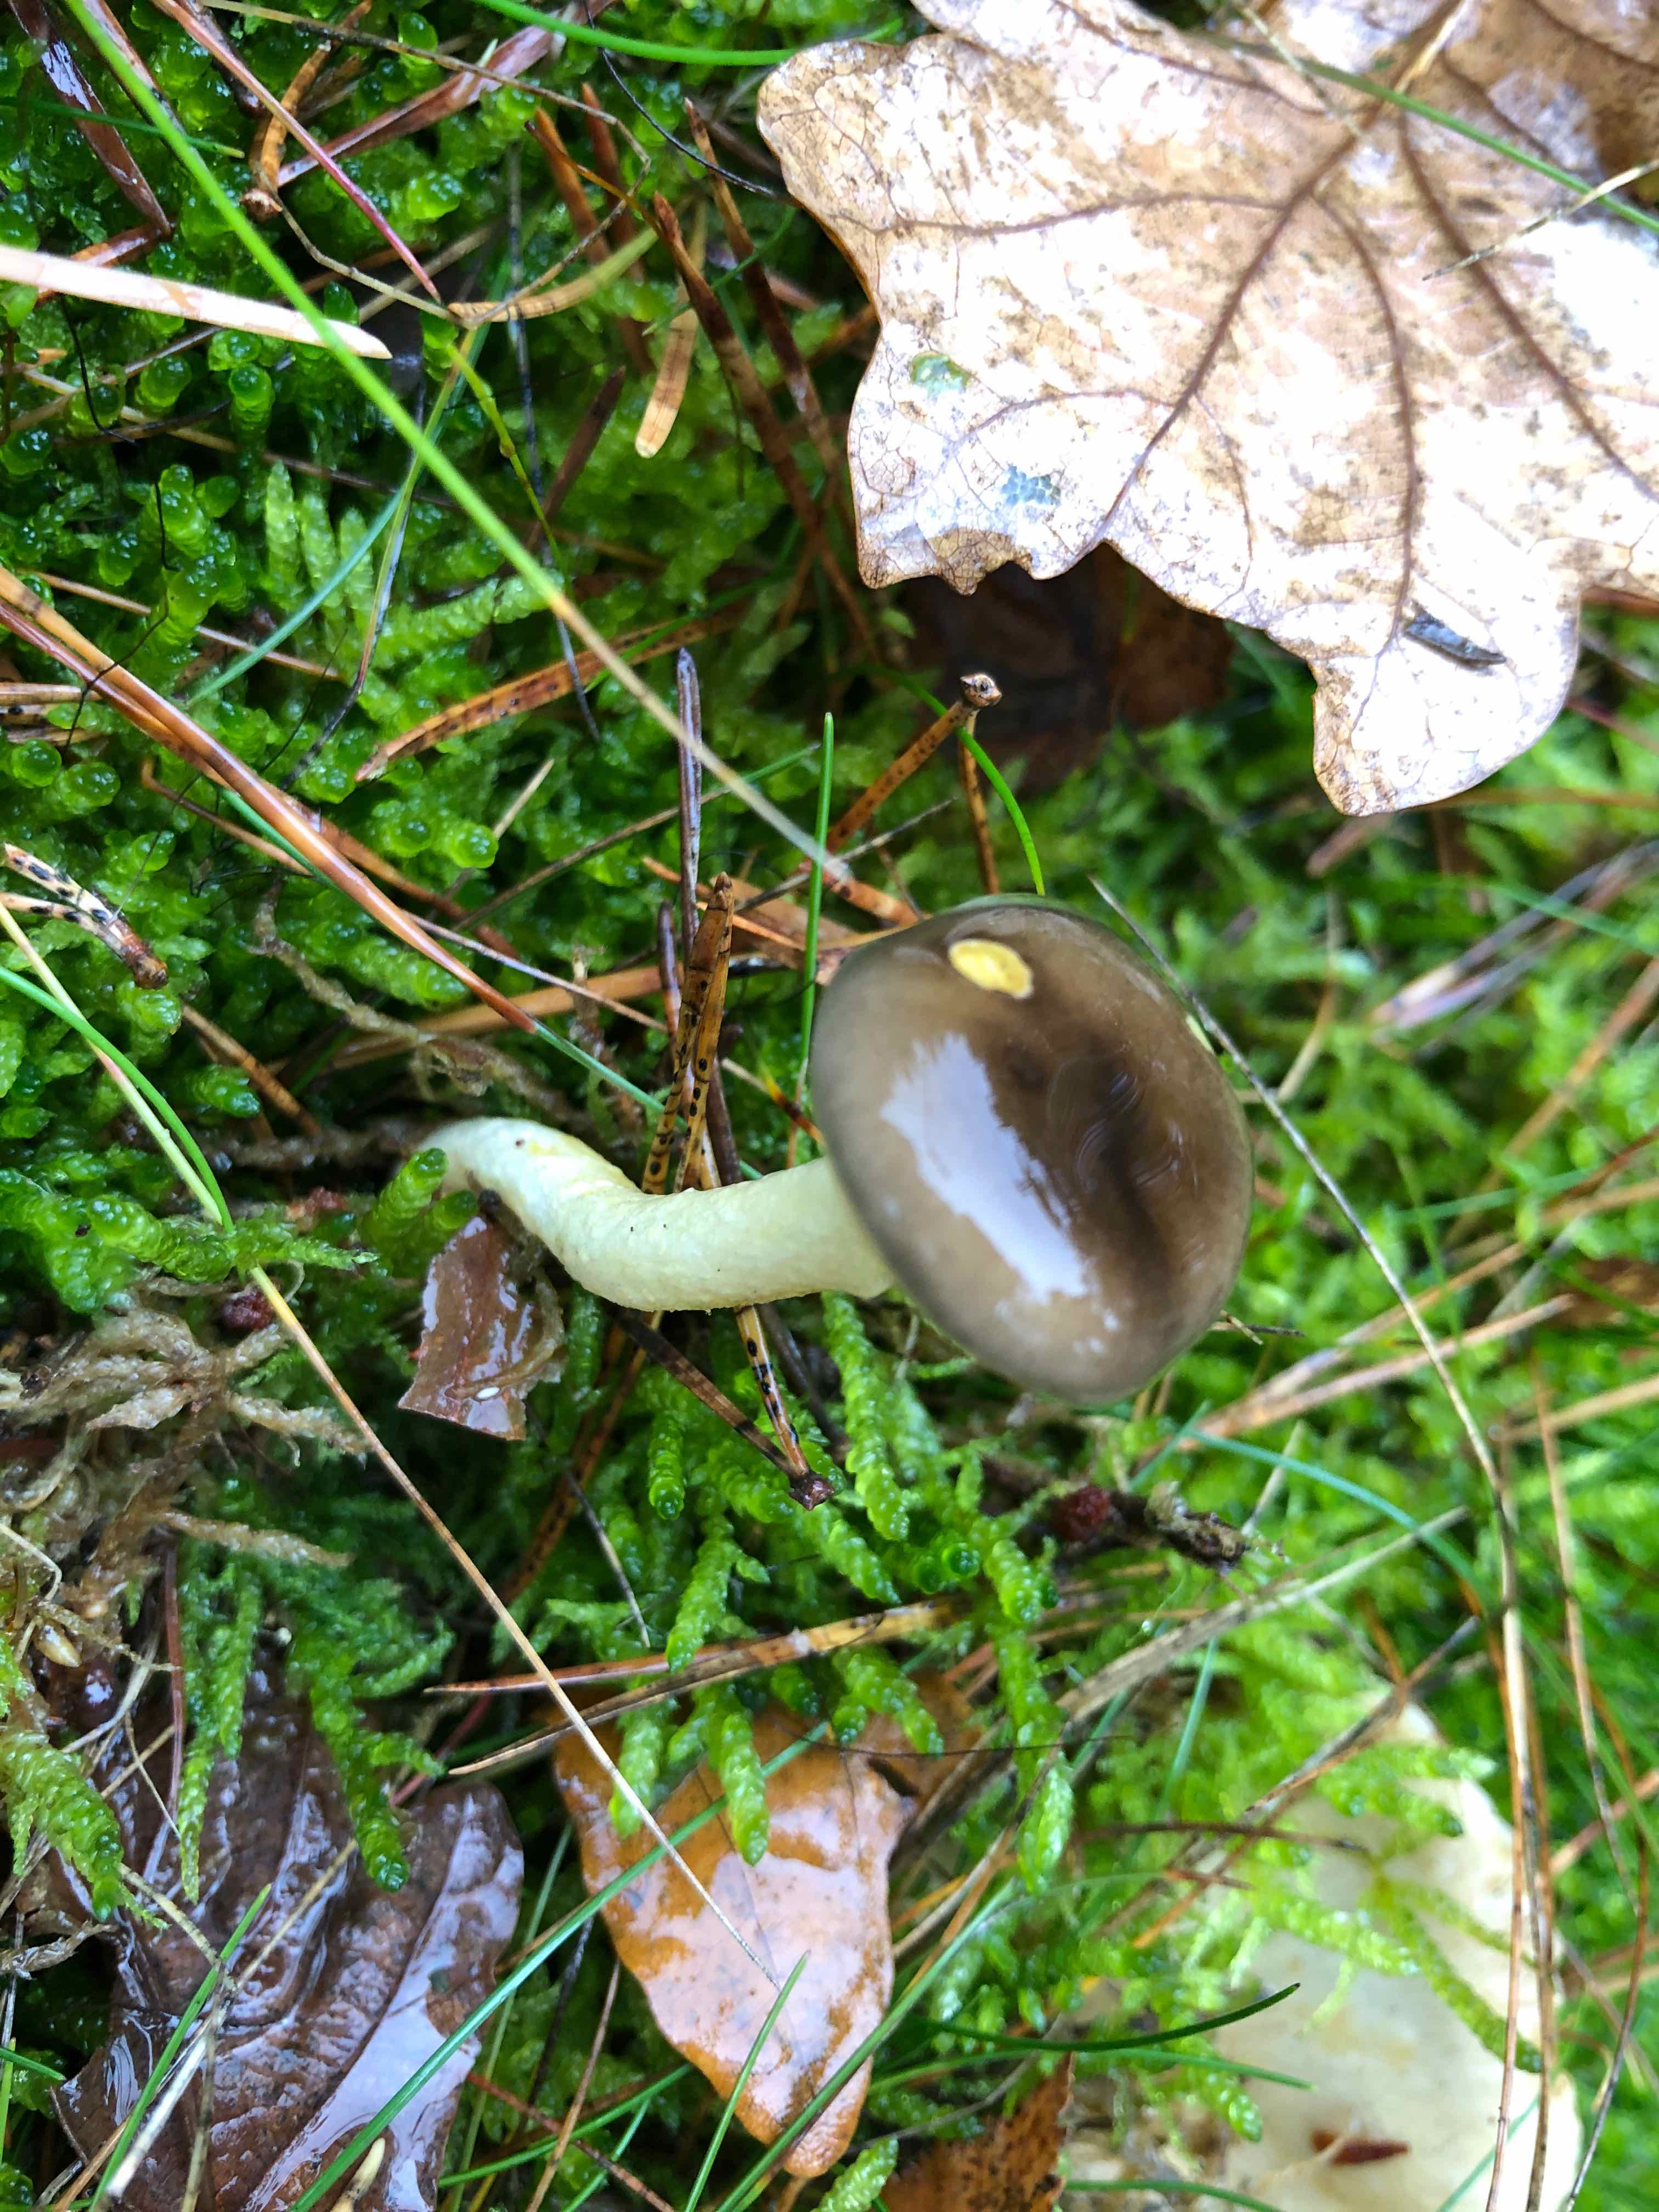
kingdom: Fungi
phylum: Basidiomycota
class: Agaricomycetes
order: Agaricales
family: Hygrophoraceae
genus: Hygrophorus
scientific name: Hygrophorus hypothejus
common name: frost-sneglehat
